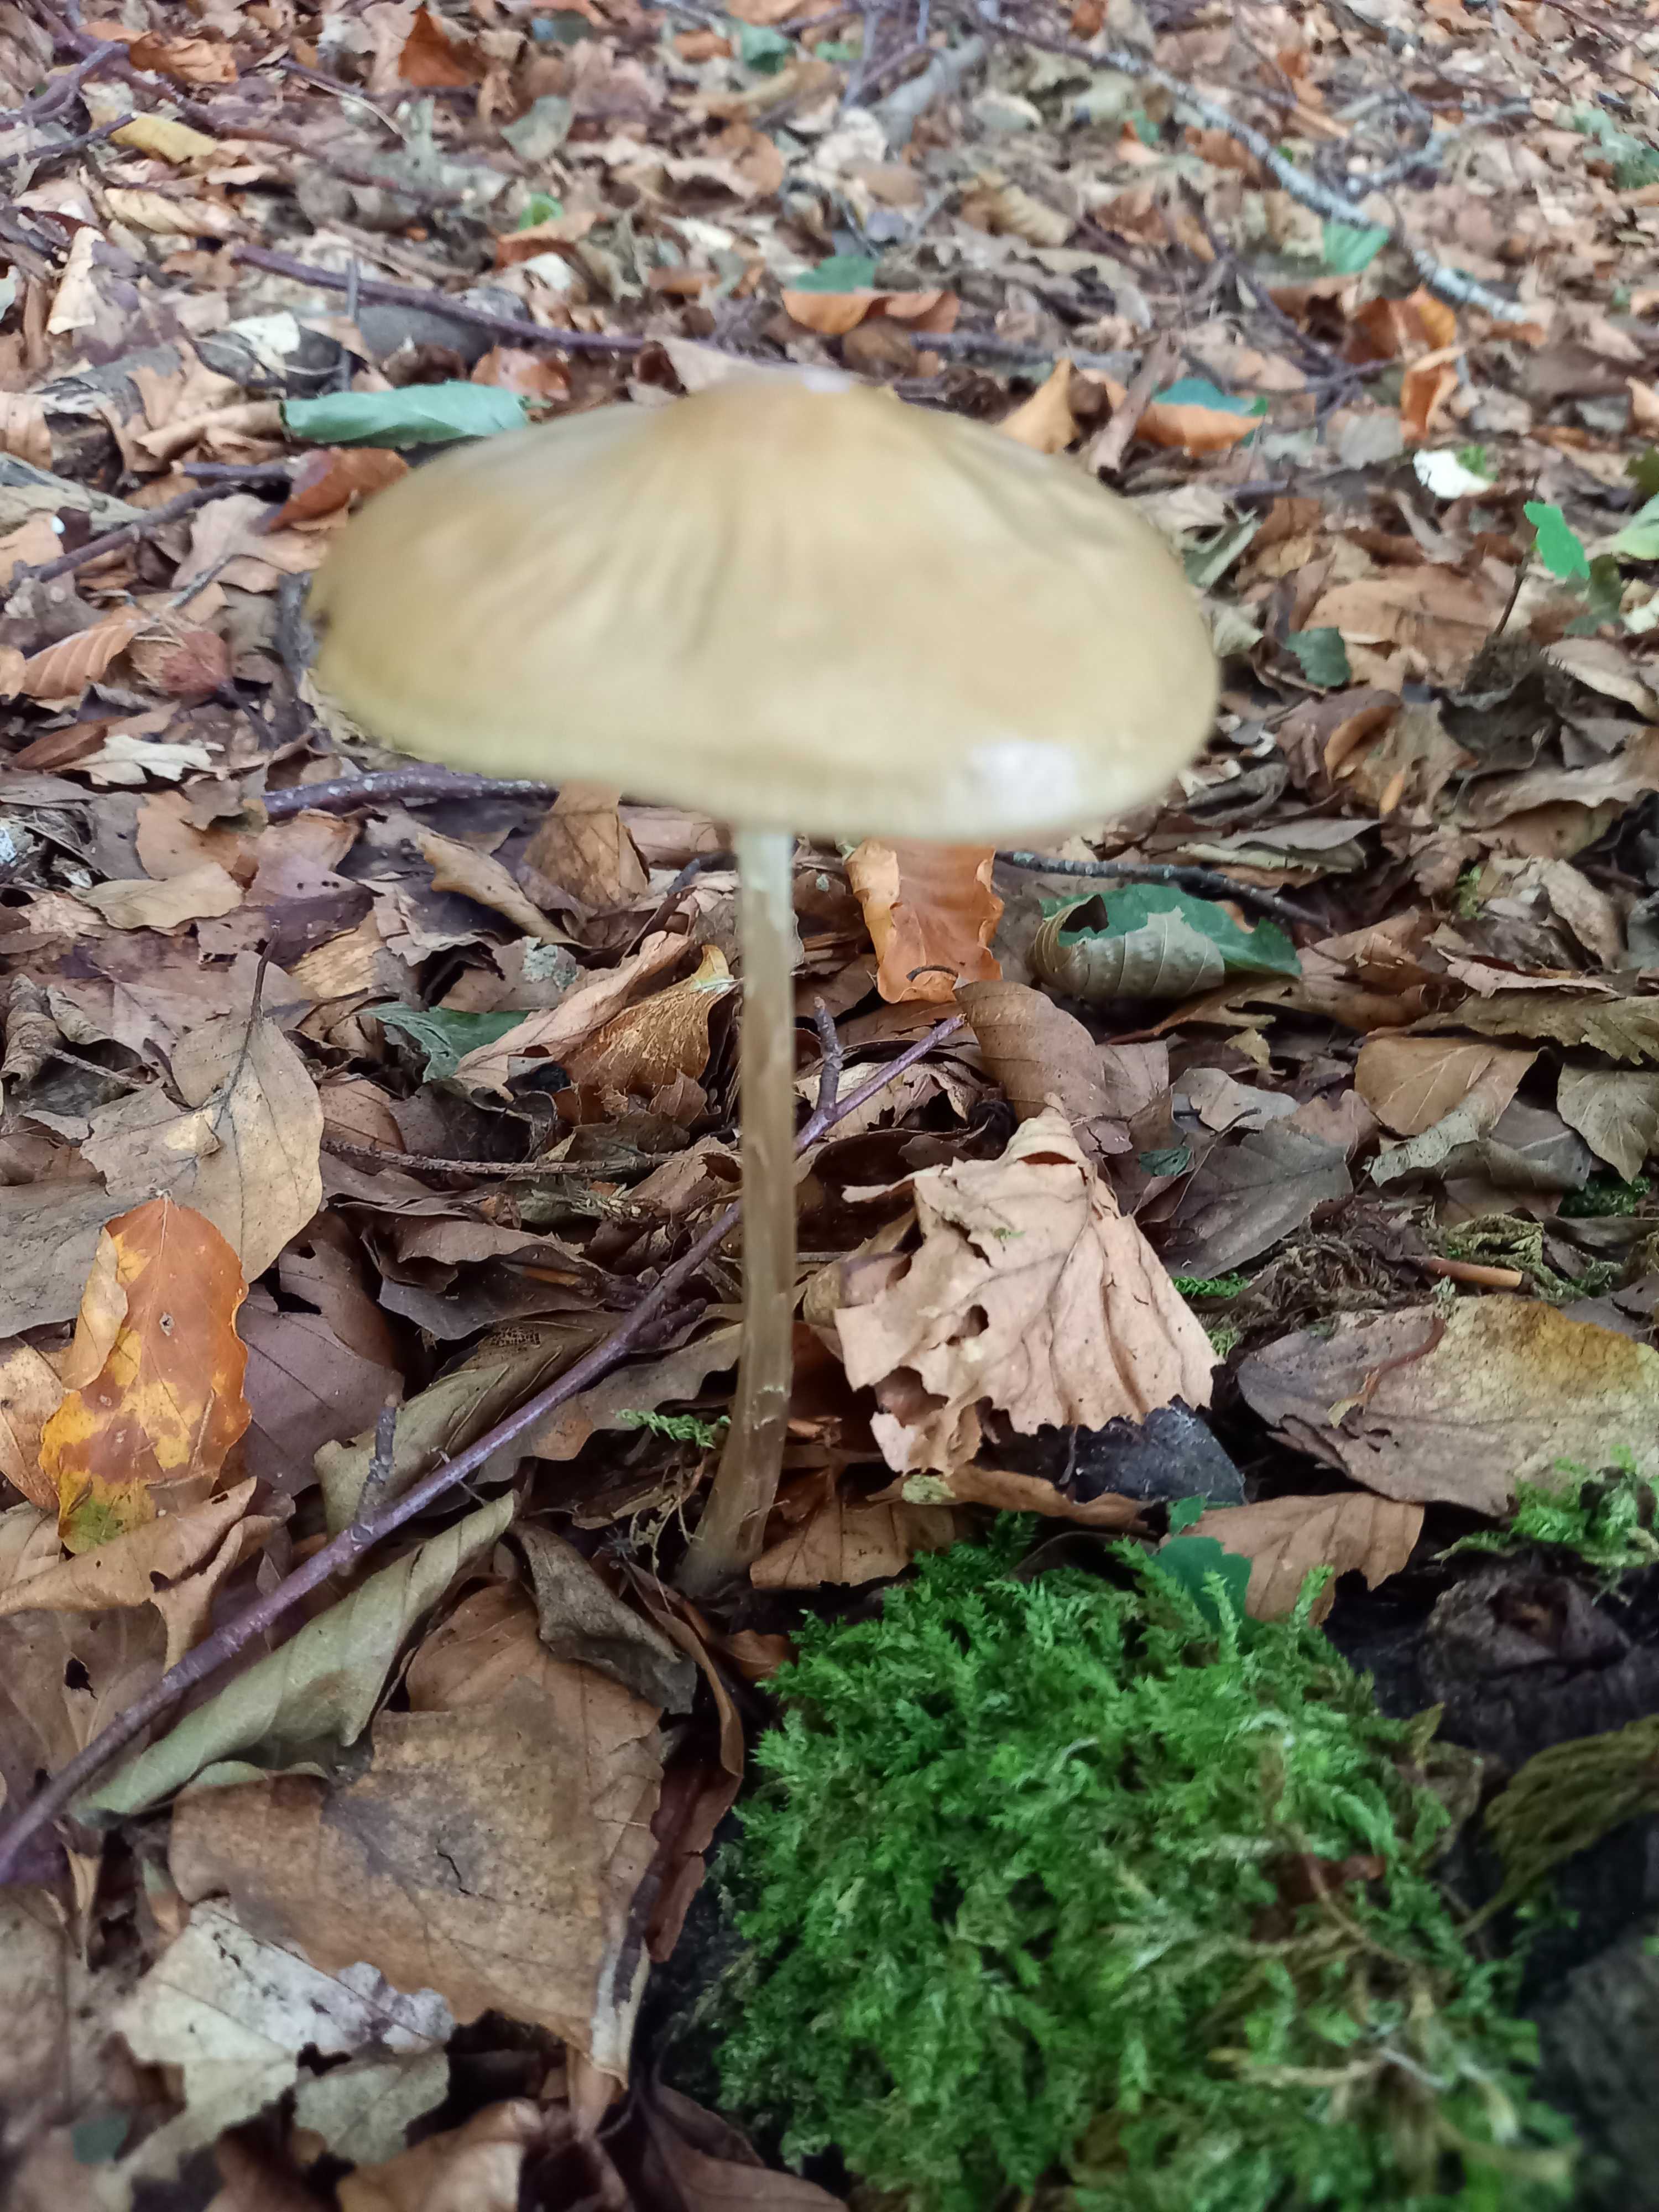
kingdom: Fungi
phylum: Basidiomycota
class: Agaricomycetes
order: Agaricales
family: Physalacriaceae
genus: Hymenopellis
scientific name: Hymenopellis radicata
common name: almindelig pælerodshat
